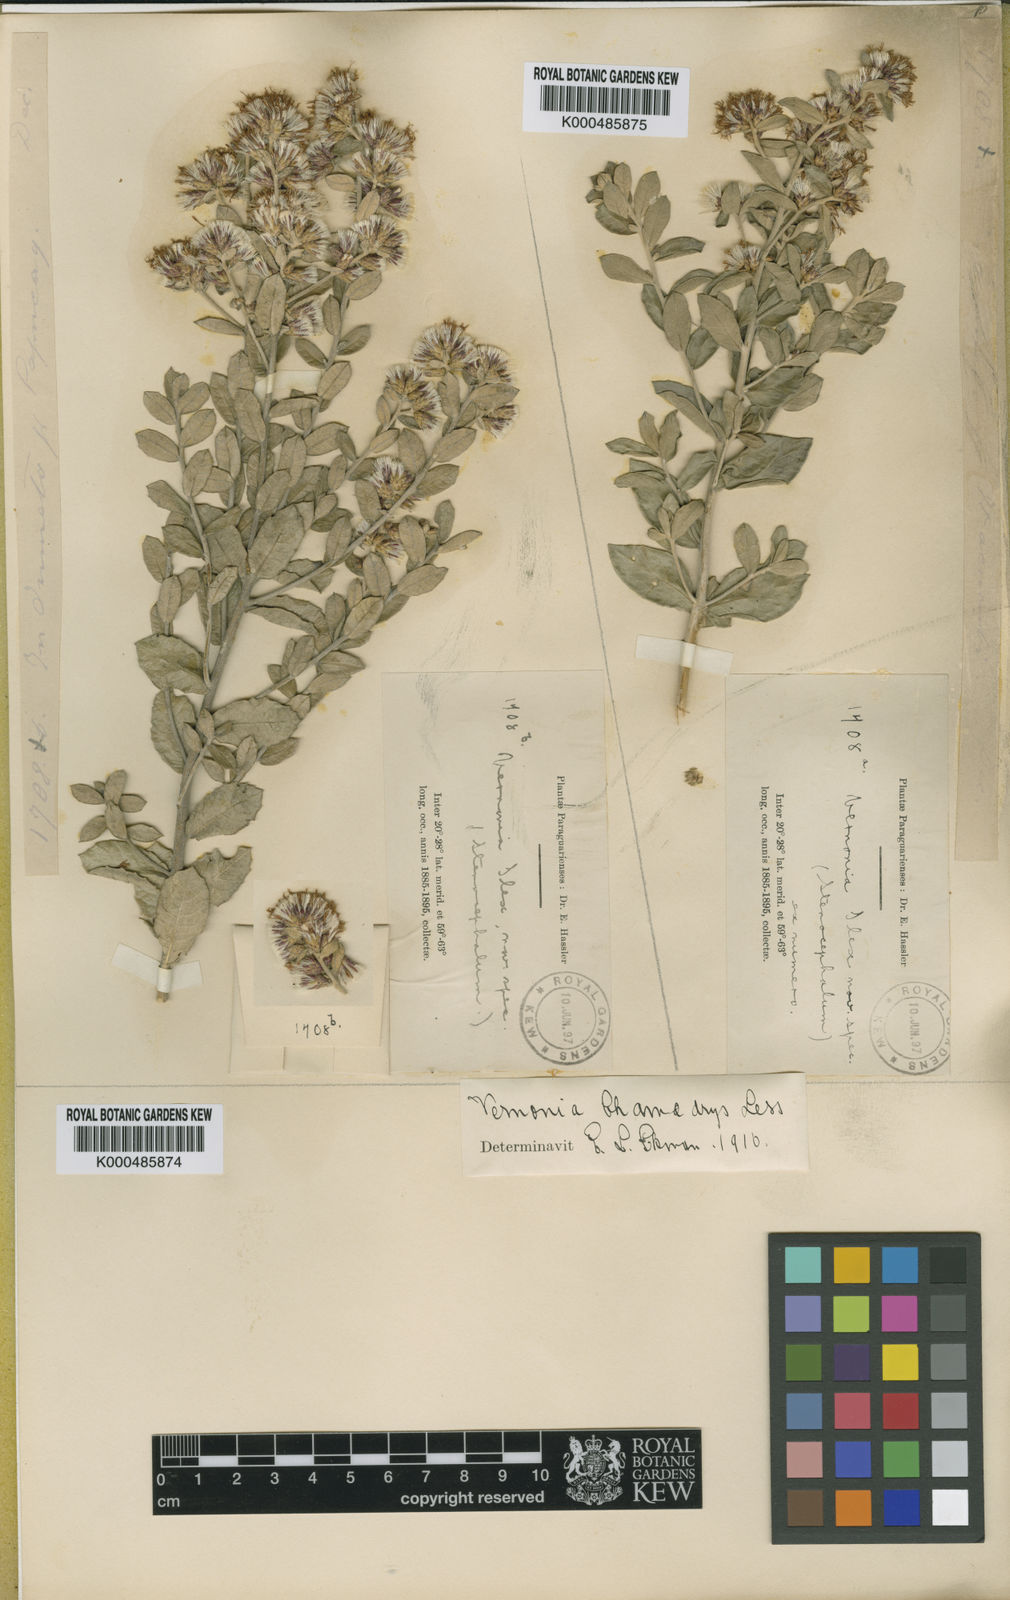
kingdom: Plantae
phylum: Tracheophyta
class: Magnoliopsida
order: Asterales
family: Asteraceae
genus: Vernonanthura
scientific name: Vernonanthura chamaedrys
